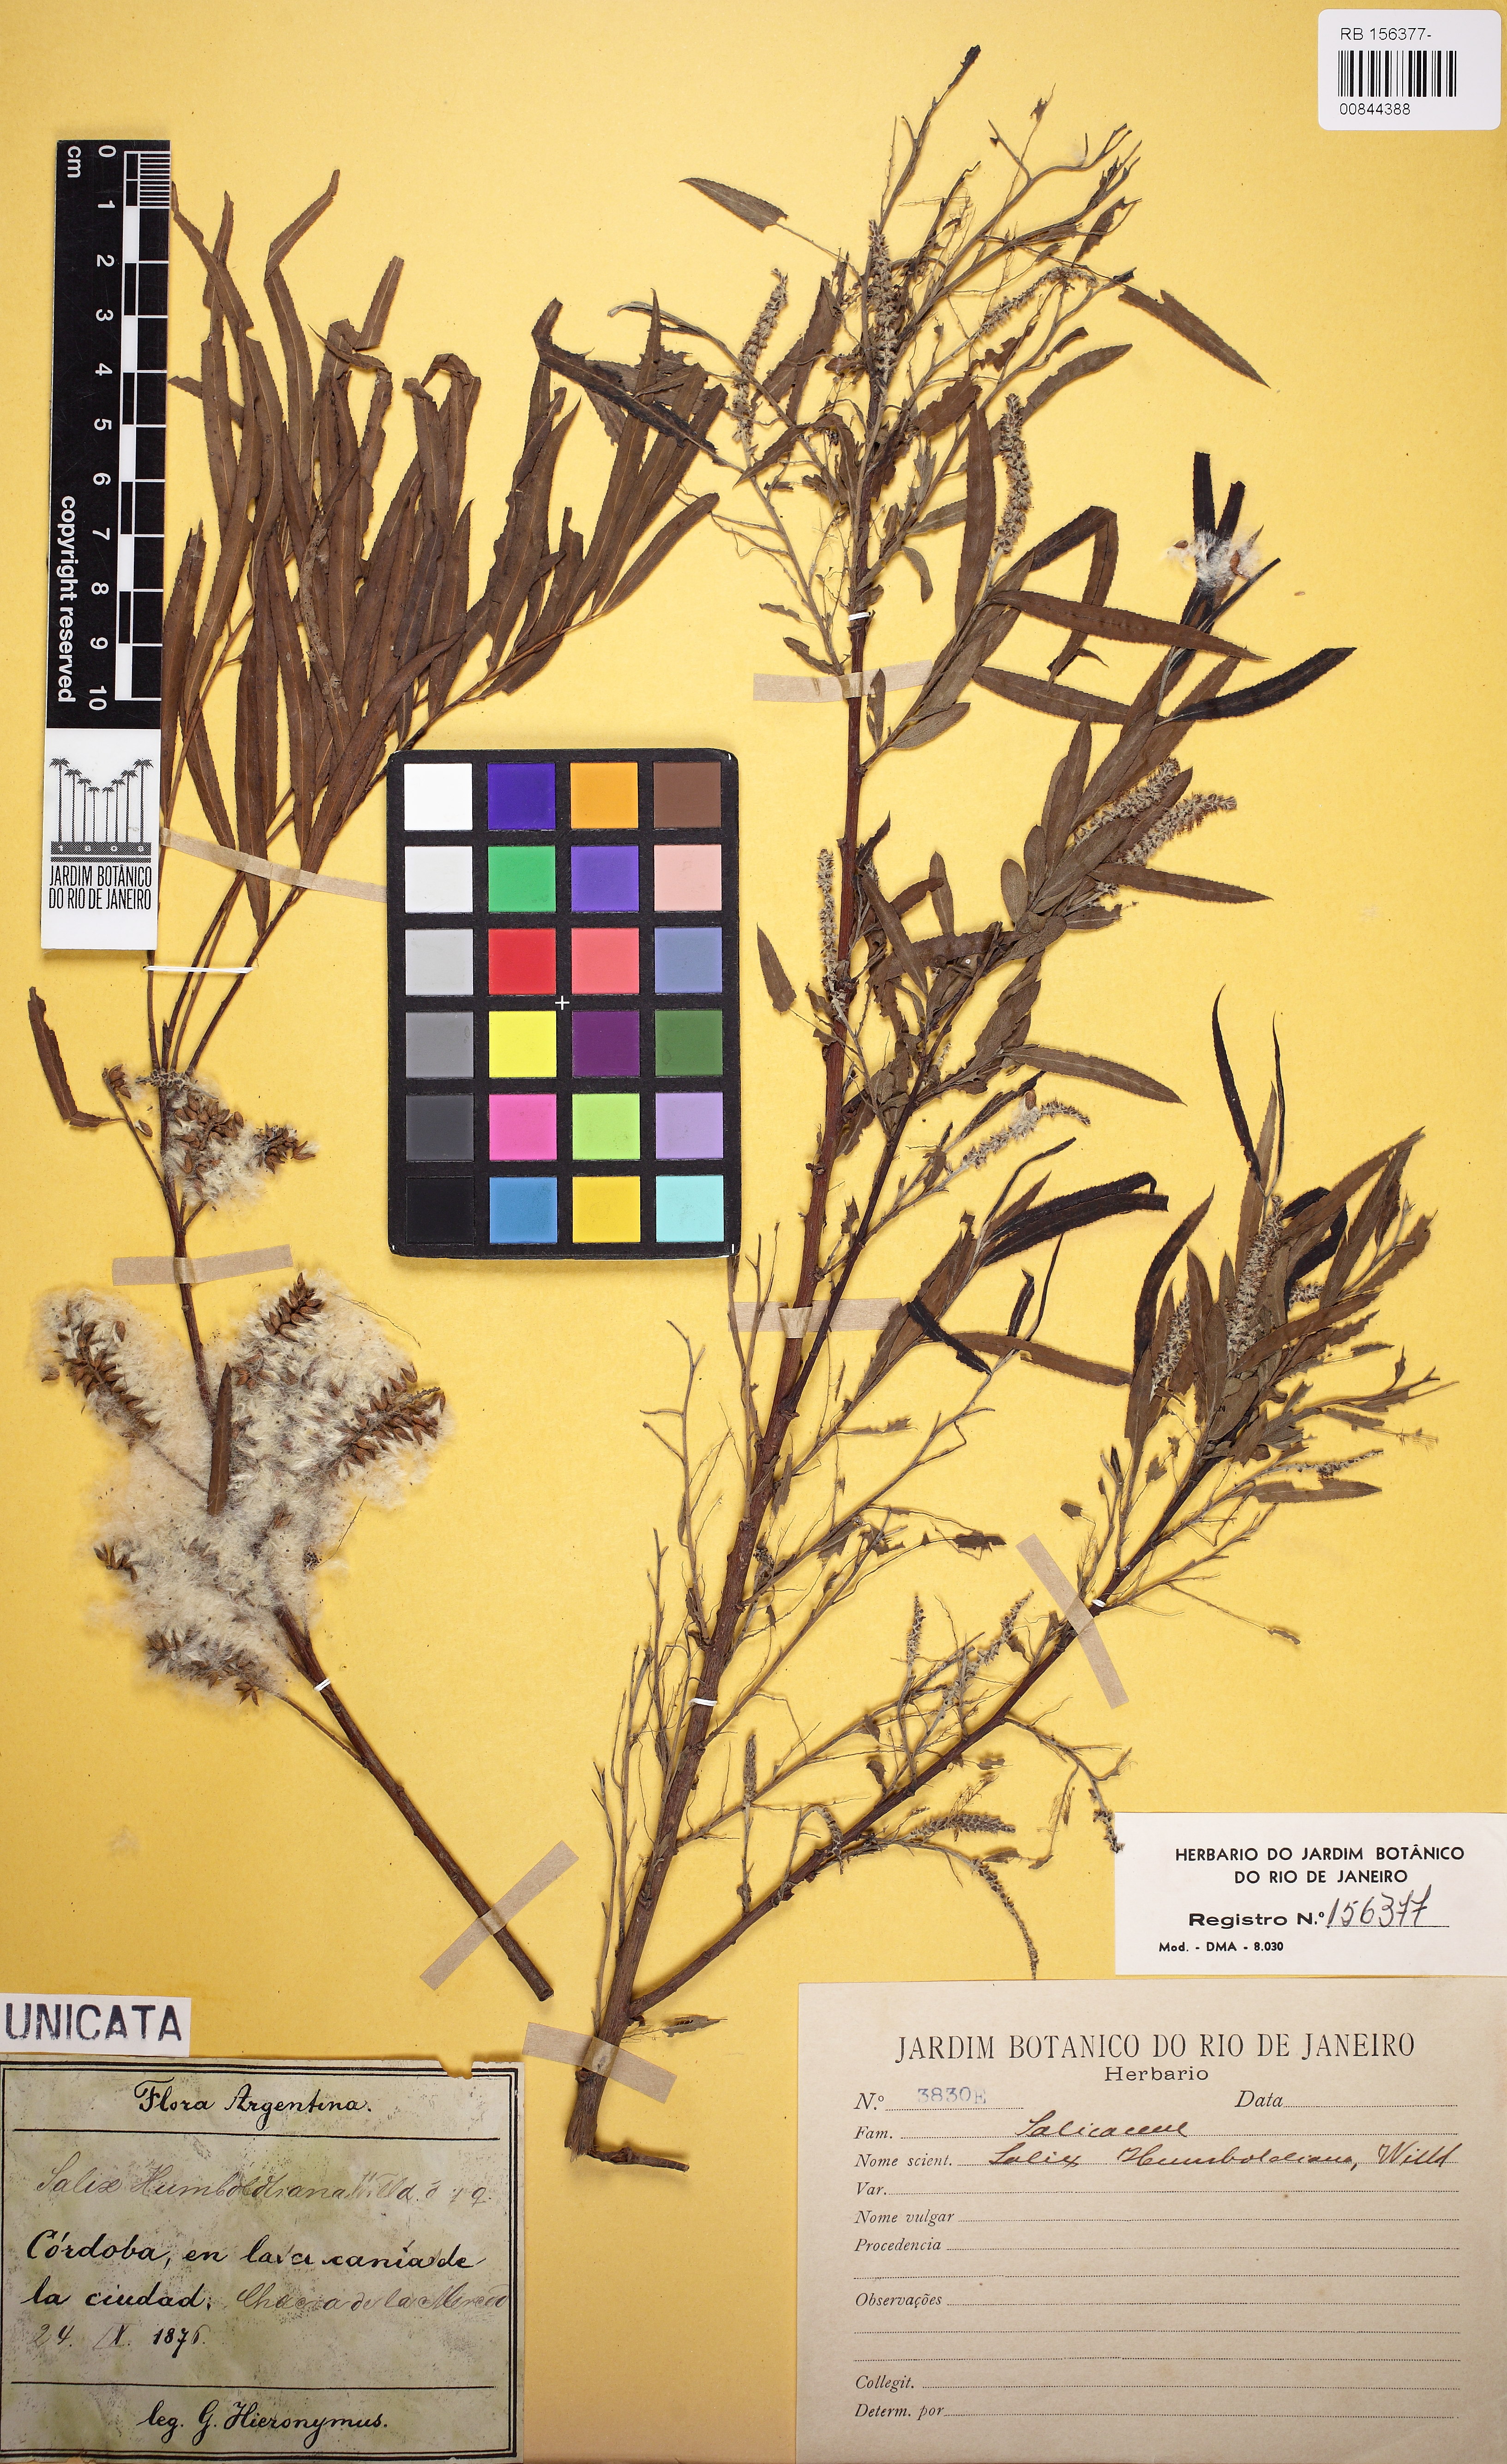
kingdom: Plantae
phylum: Tracheophyta
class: Magnoliopsida
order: Malpighiales
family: Salicaceae
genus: Salix
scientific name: Salix humboldtiana
